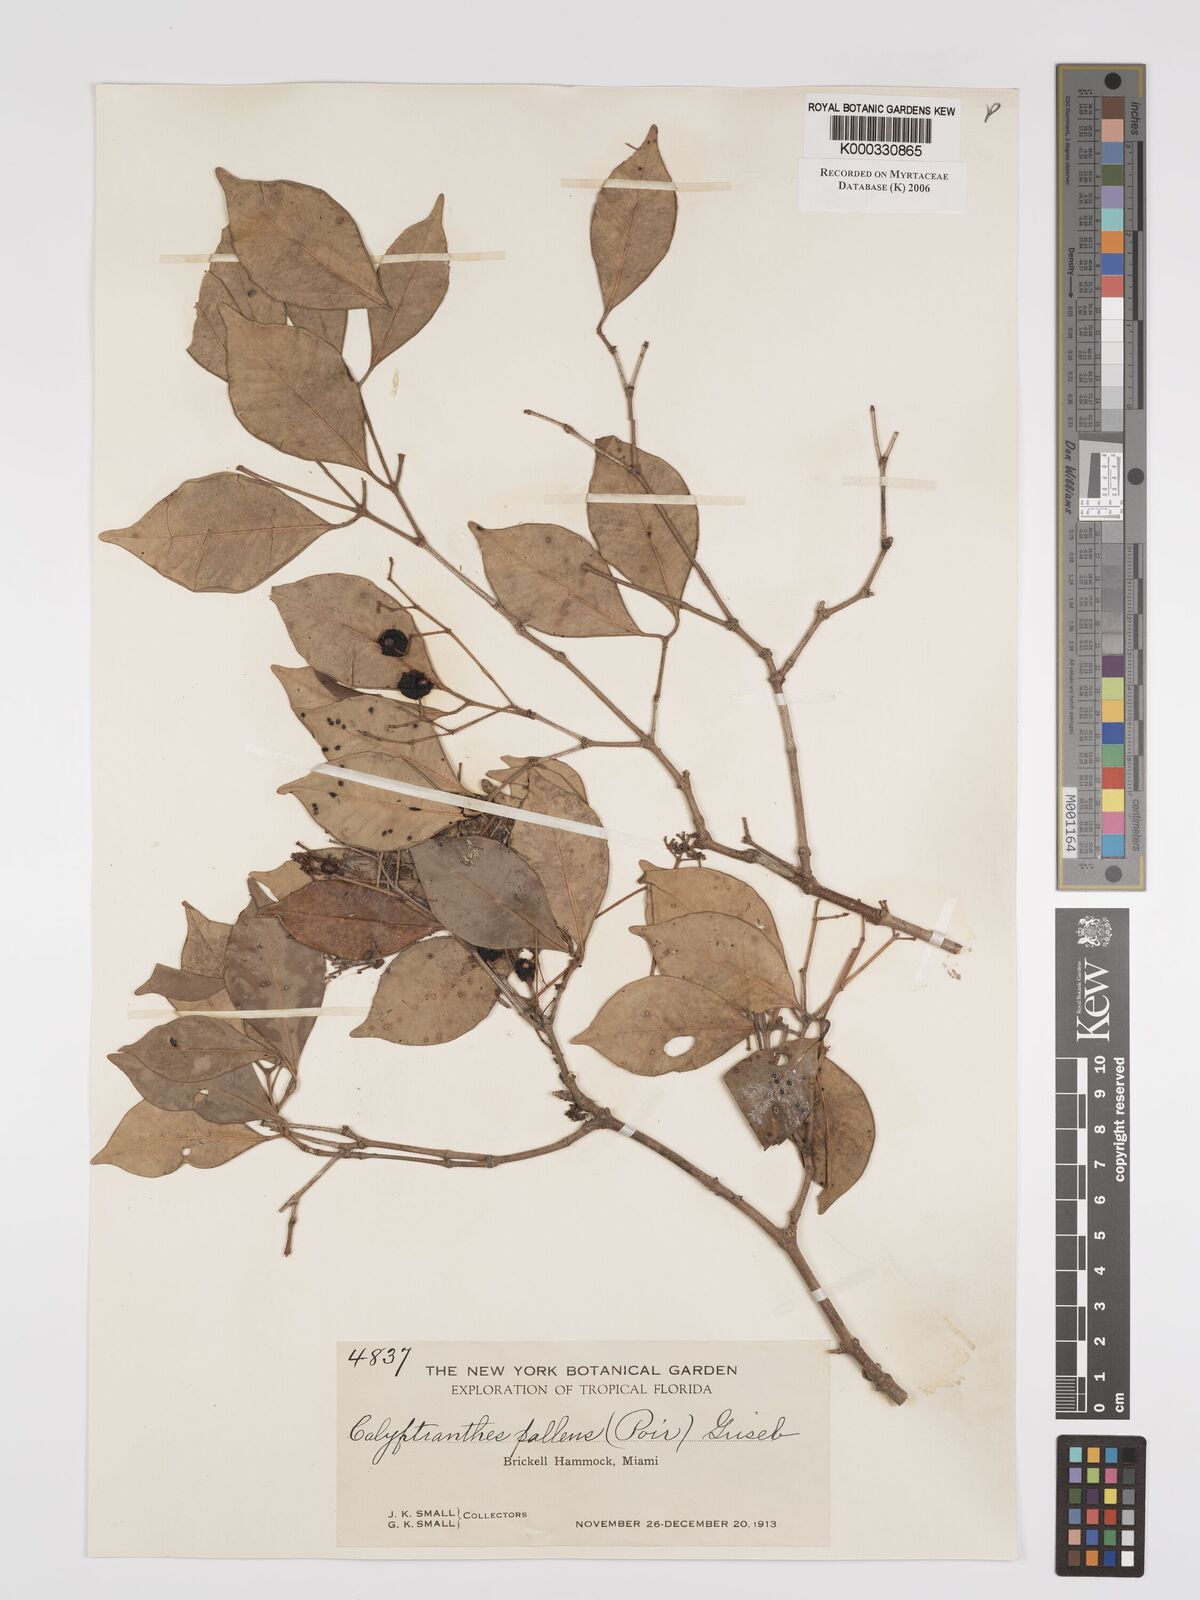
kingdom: Plantae
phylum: Tracheophyta
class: Magnoliopsida
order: Myrtales
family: Myrtaceae
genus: Myrcia
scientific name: Myrcia neopallens
